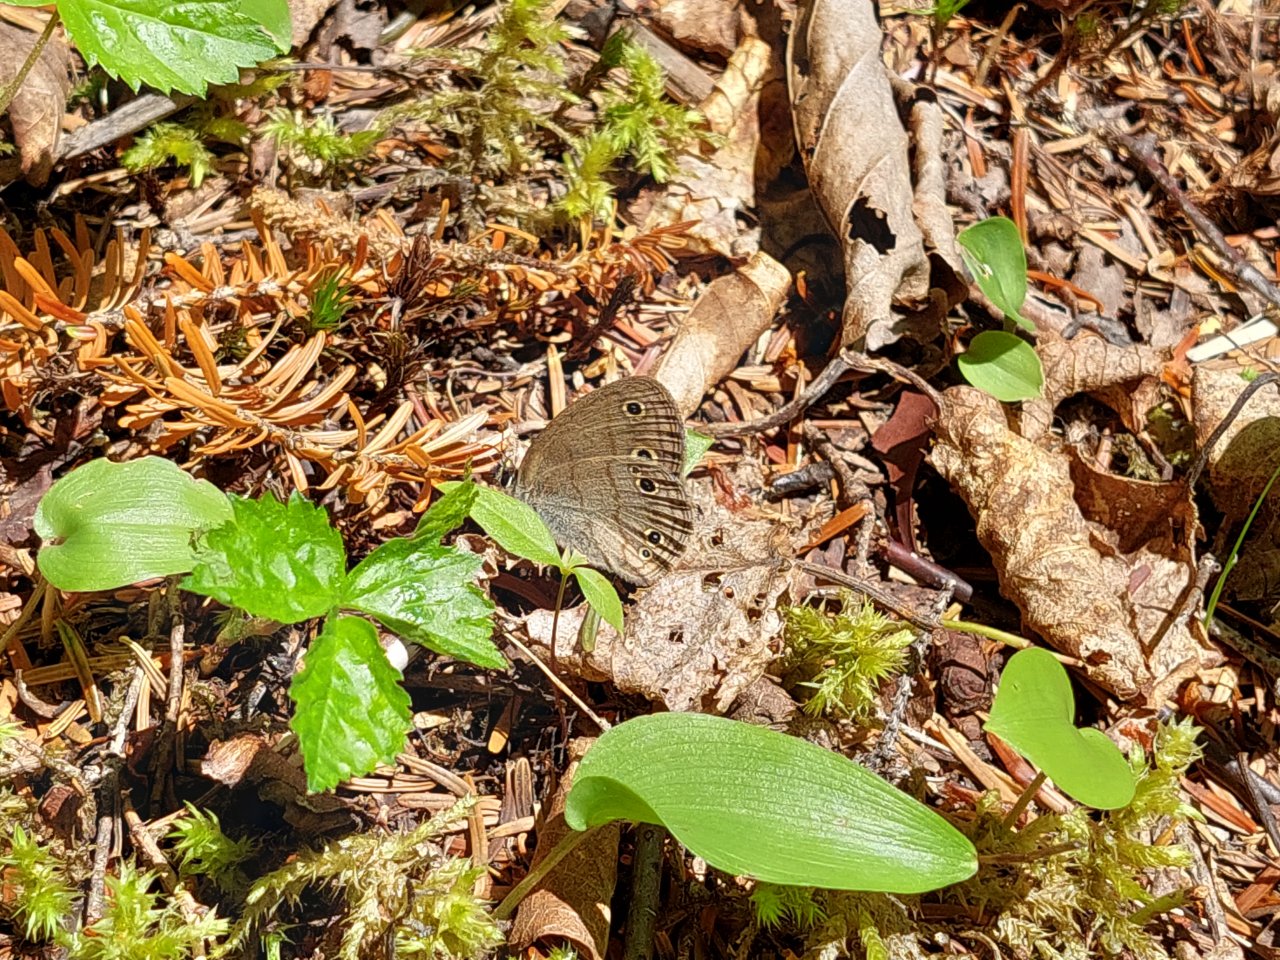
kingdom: Animalia
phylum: Arthropoda
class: Insecta
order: Lepidoptera
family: Nymphalidae
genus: Euptychia
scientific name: Euptychia cymela
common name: Little Wood Satyr
